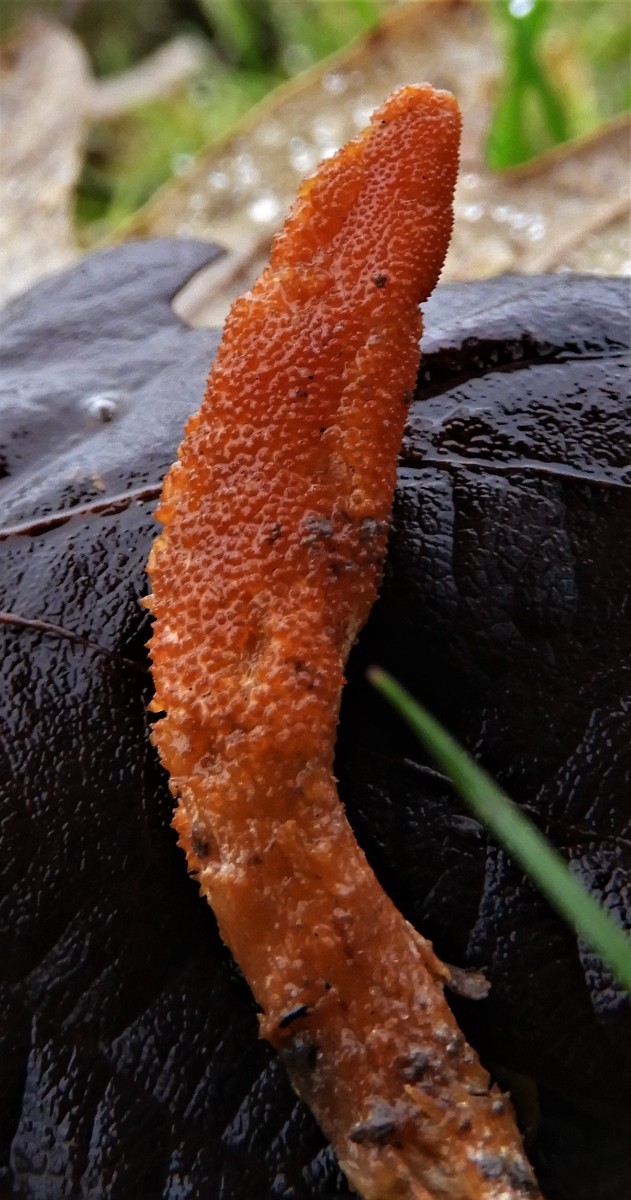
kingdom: Fungi
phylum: Ascomycota
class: Sordariomycetes
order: Hypocreales
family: Cordycipitaceae
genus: Cordyceps
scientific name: Cordyceps militaris
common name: puppe-snyltekølle
